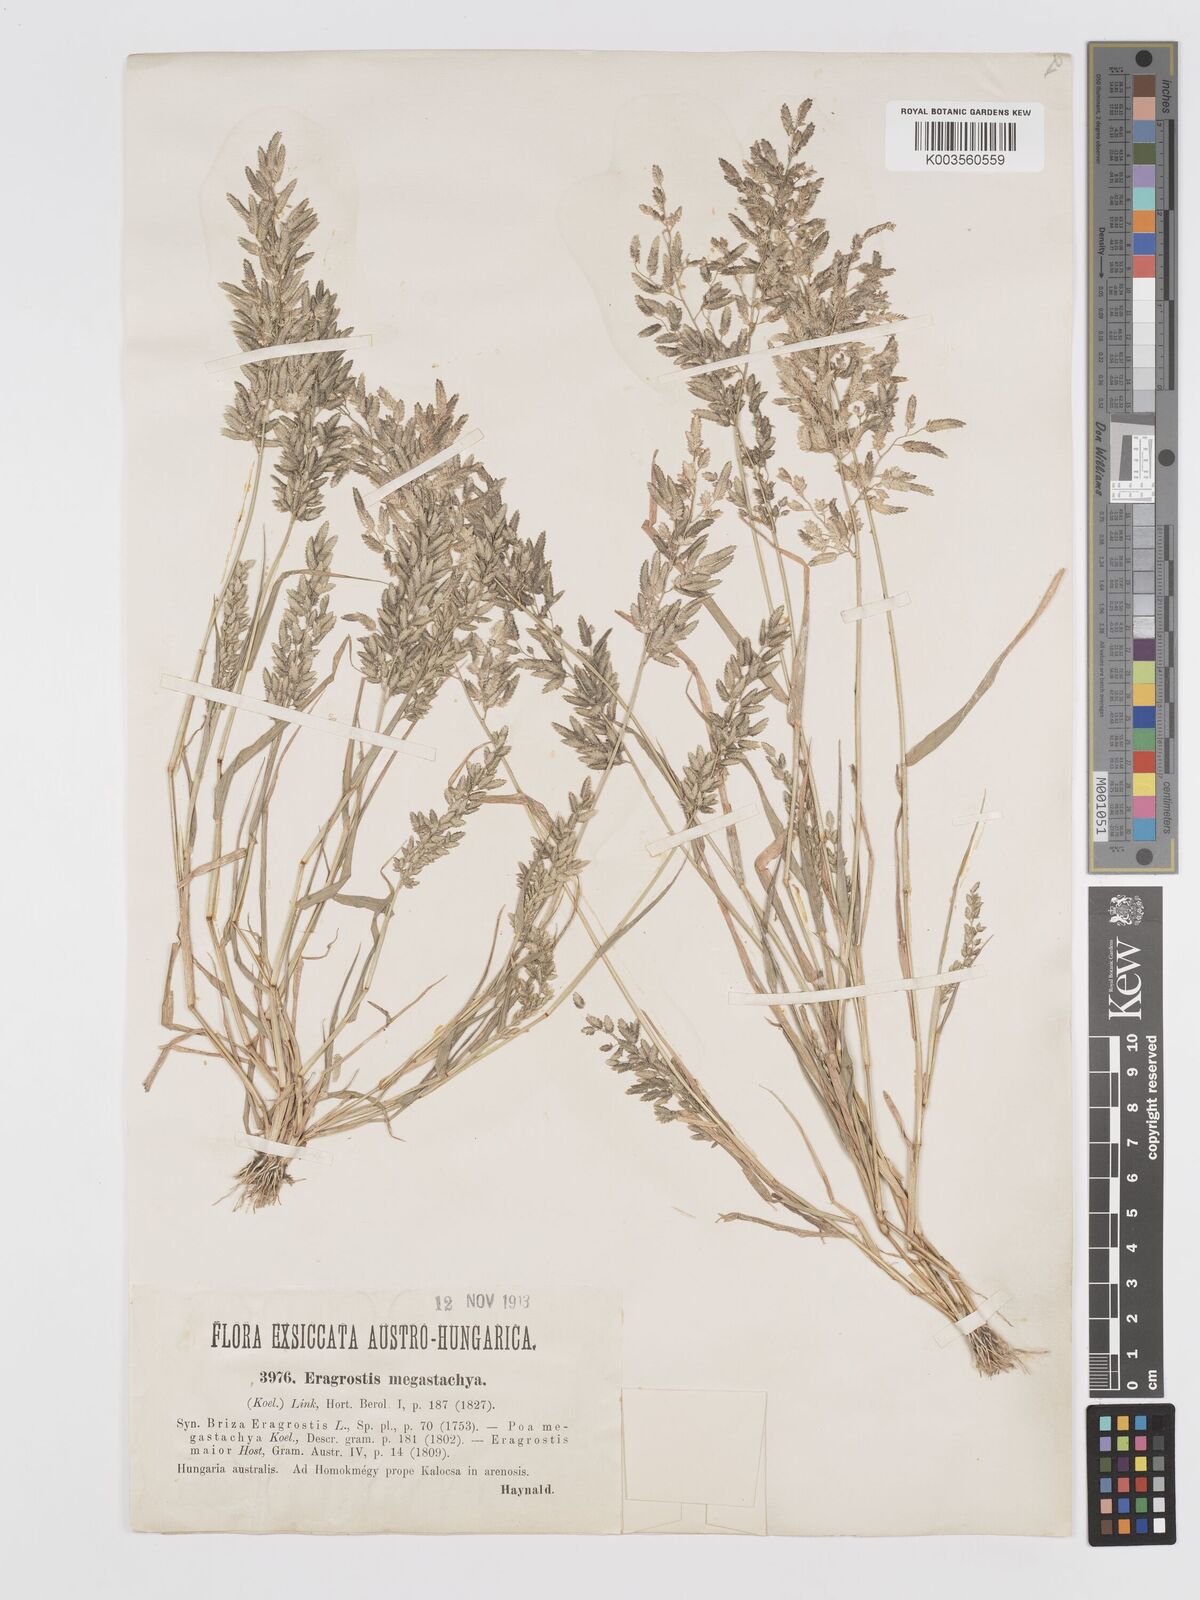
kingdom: Plantae
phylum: Tracheophyta
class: Liliopsida
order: Poales
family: Poaceae
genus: Eragrostis
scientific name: Eragrostis cilianensis
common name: Stinkgrass
